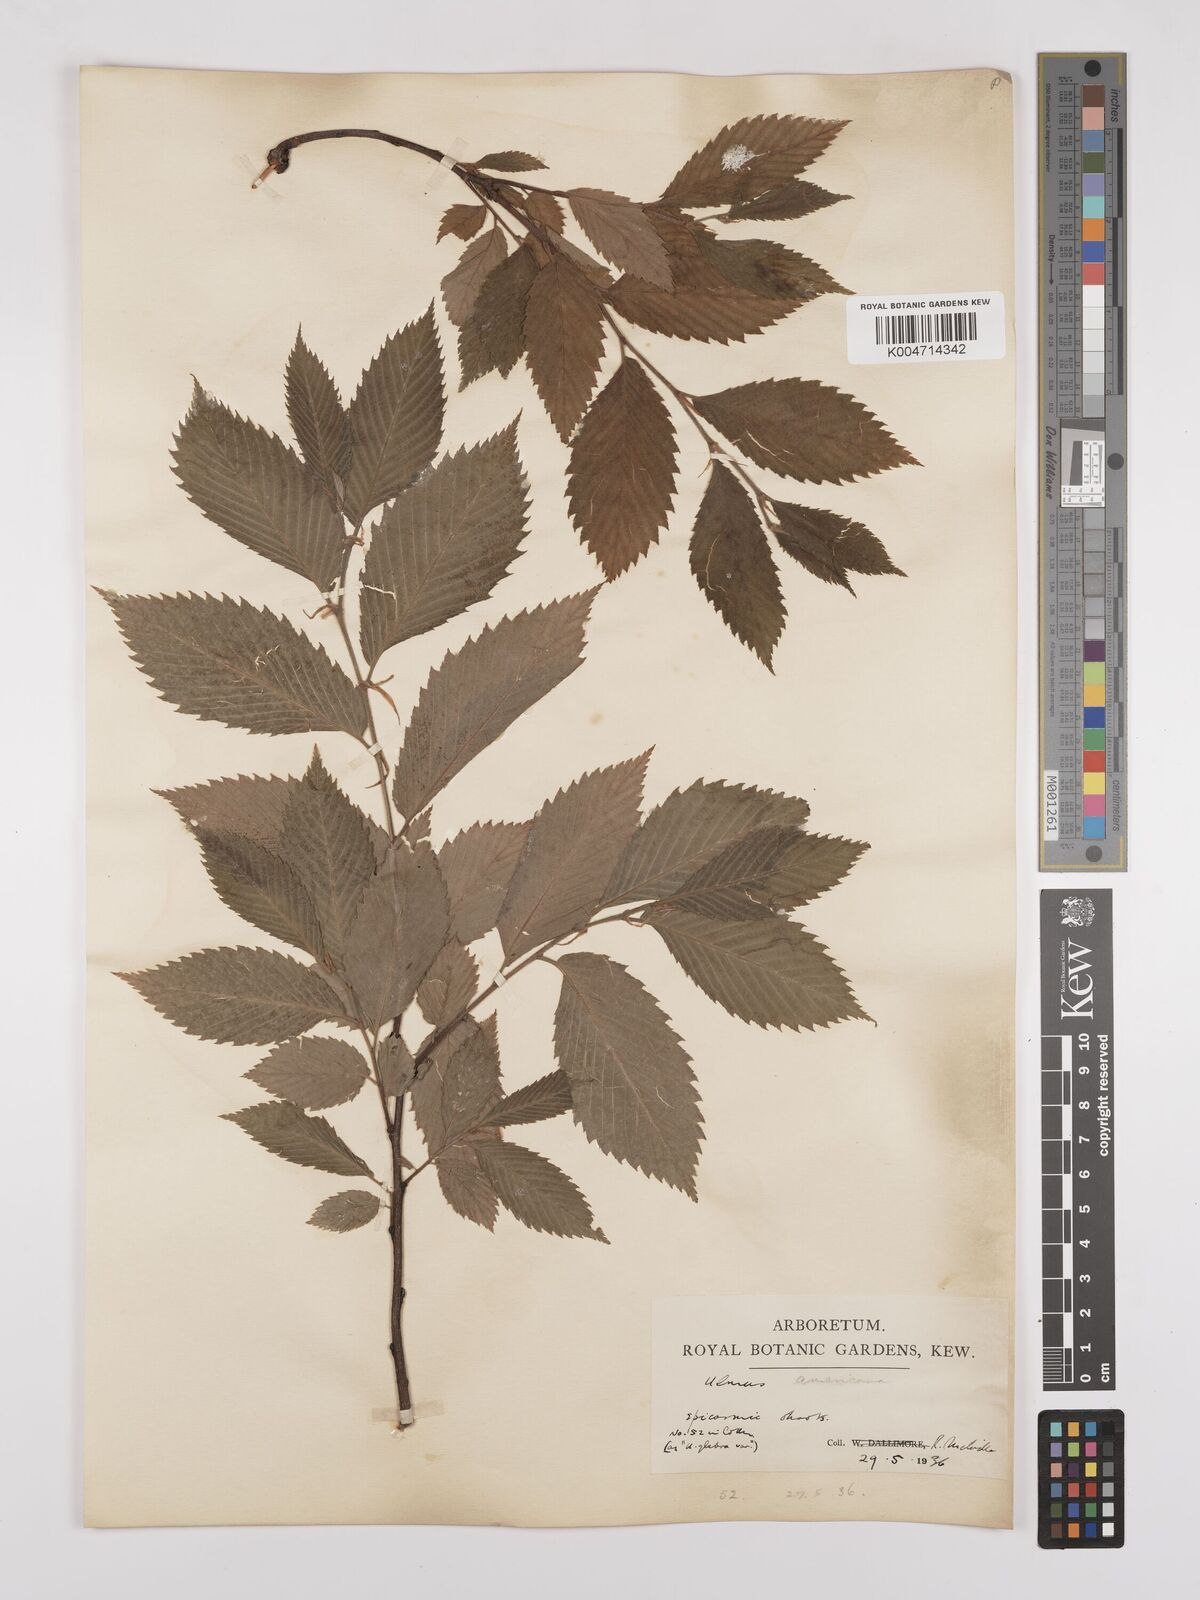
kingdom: Plantae
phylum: Tracheophyta
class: Magnoliopsida
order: Rosales
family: Ulmaceae
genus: Ulmus
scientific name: Ulmus americana
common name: American elm
